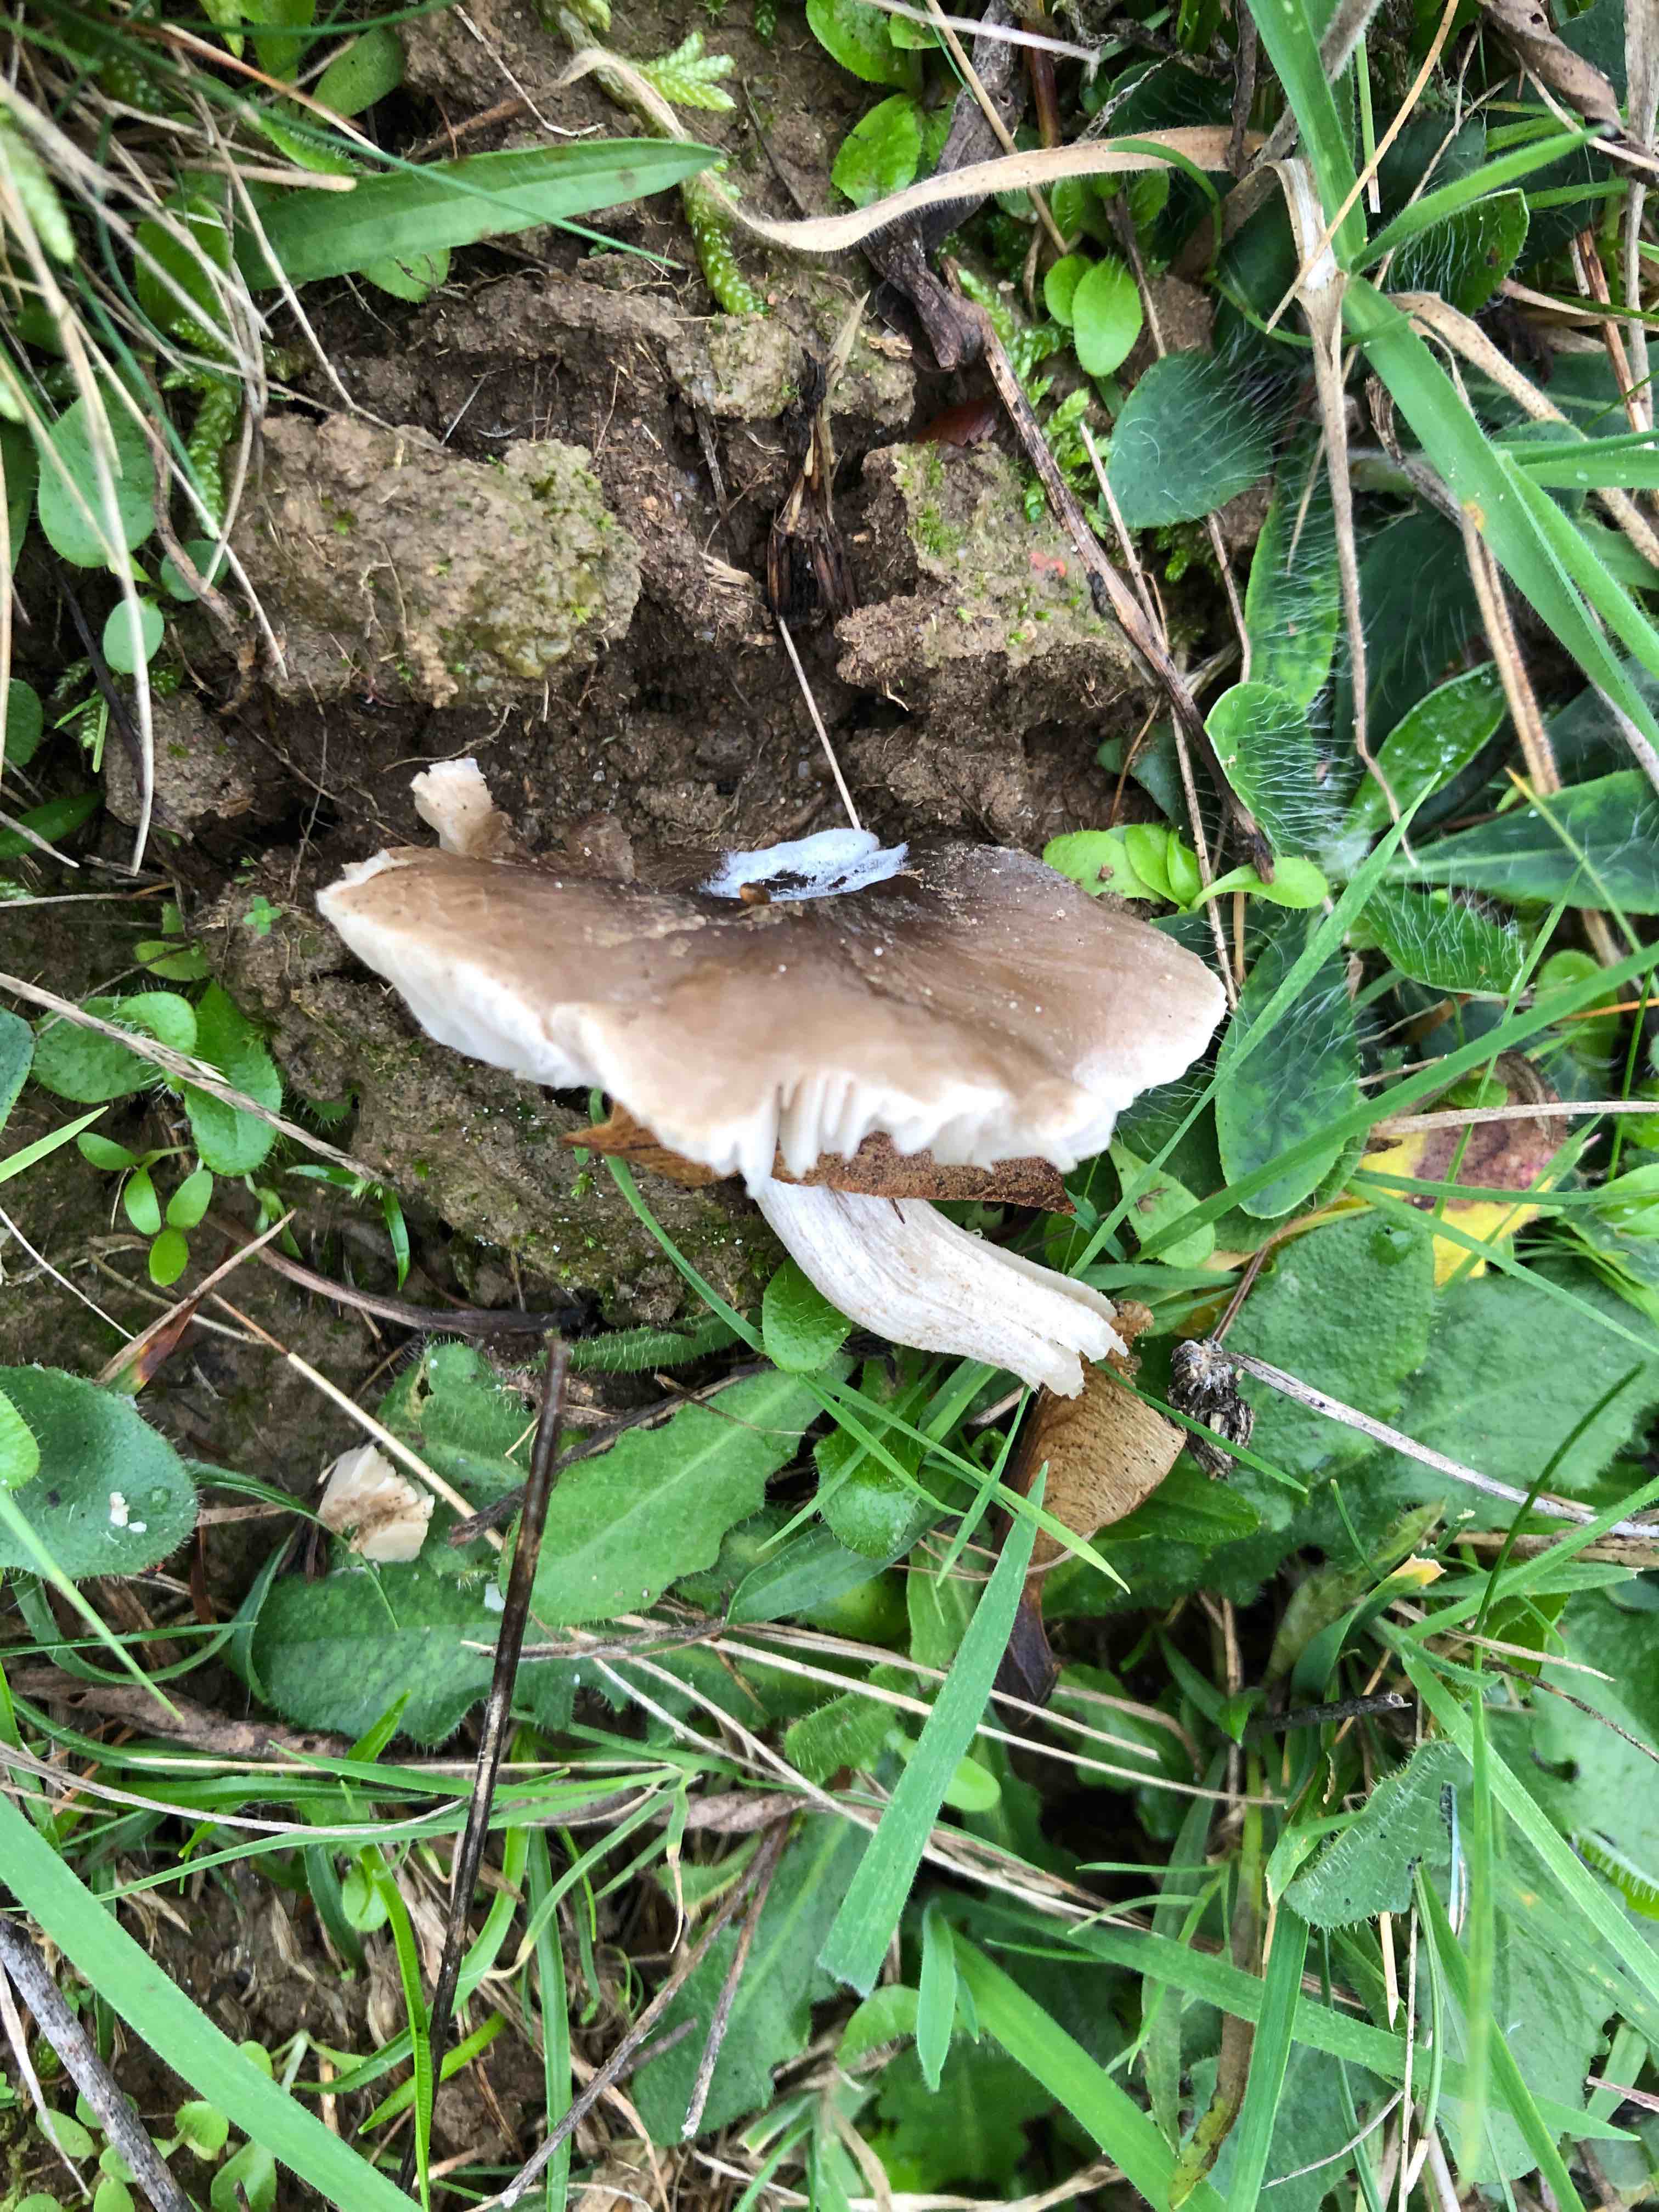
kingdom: Fungi
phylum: Basidiomycota
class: Agaricomycetes
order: Agaricales
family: Tricholomataceae
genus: Dermoloma
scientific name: Dermoloma cuneifolium
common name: eng-nonnehat
